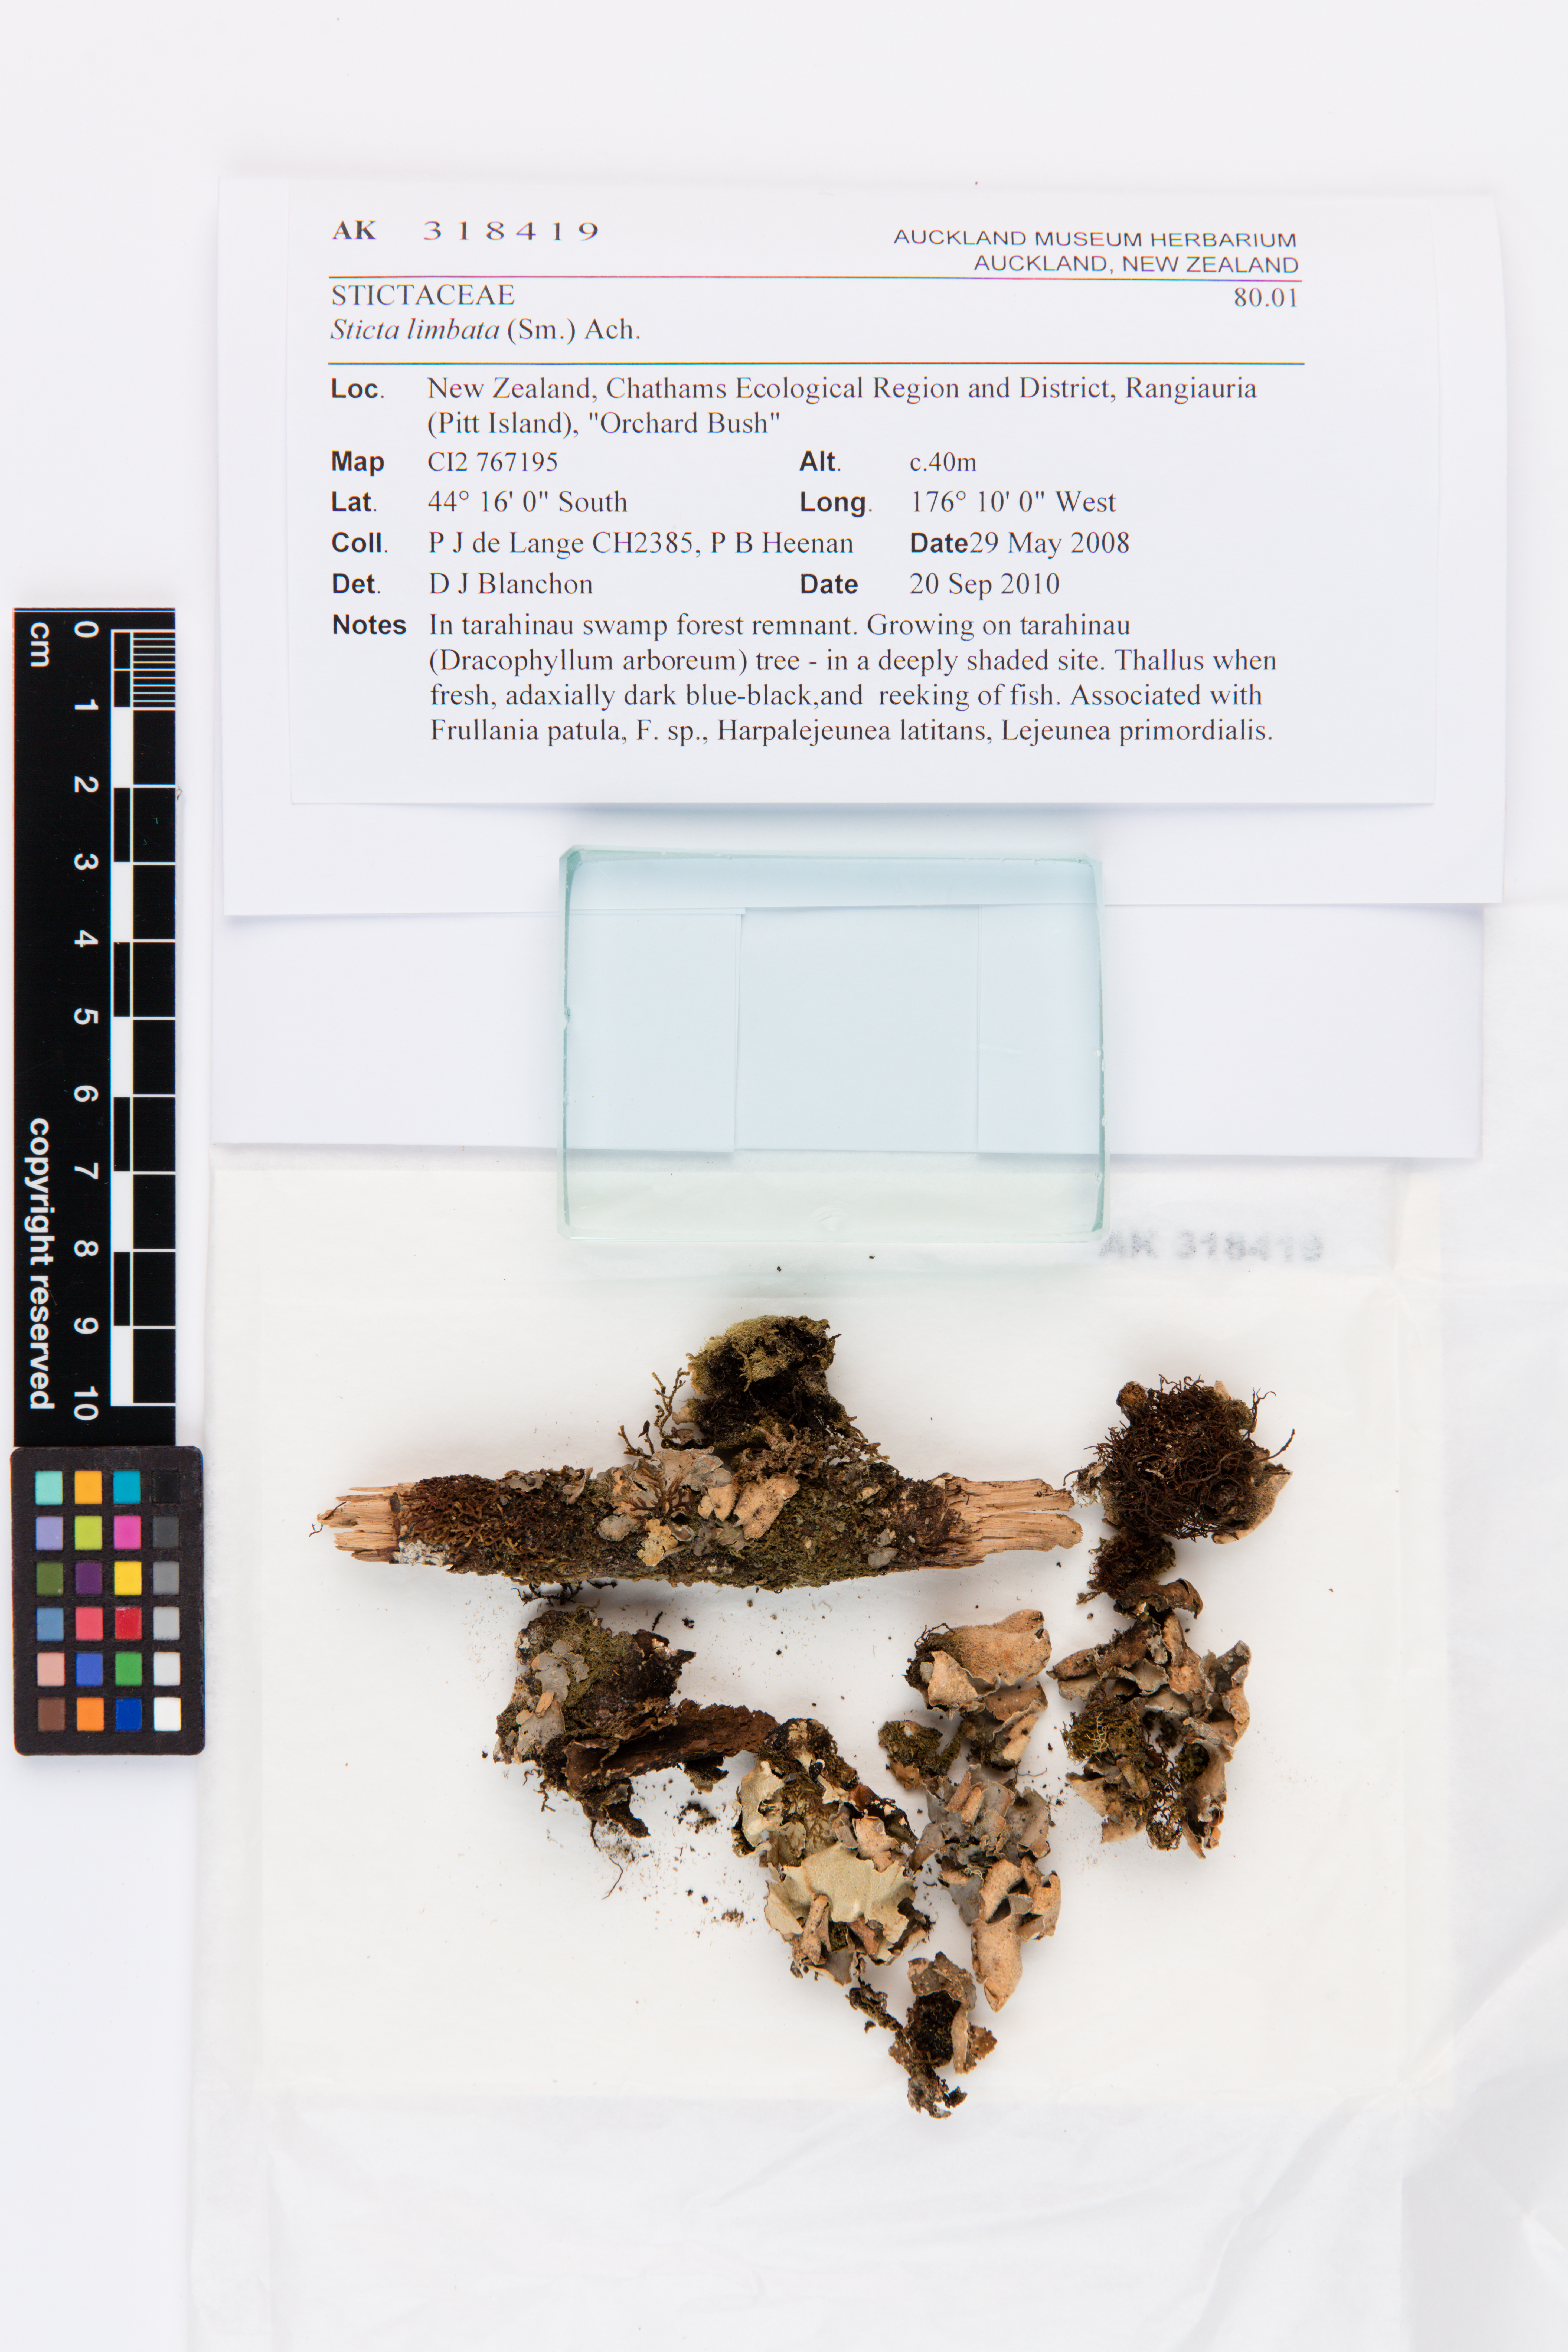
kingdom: Fungi
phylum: Ascomycota
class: Lecanoromycetes
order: Peltigerales
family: Lobariaceae
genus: Sticta
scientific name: Sticta limbata
